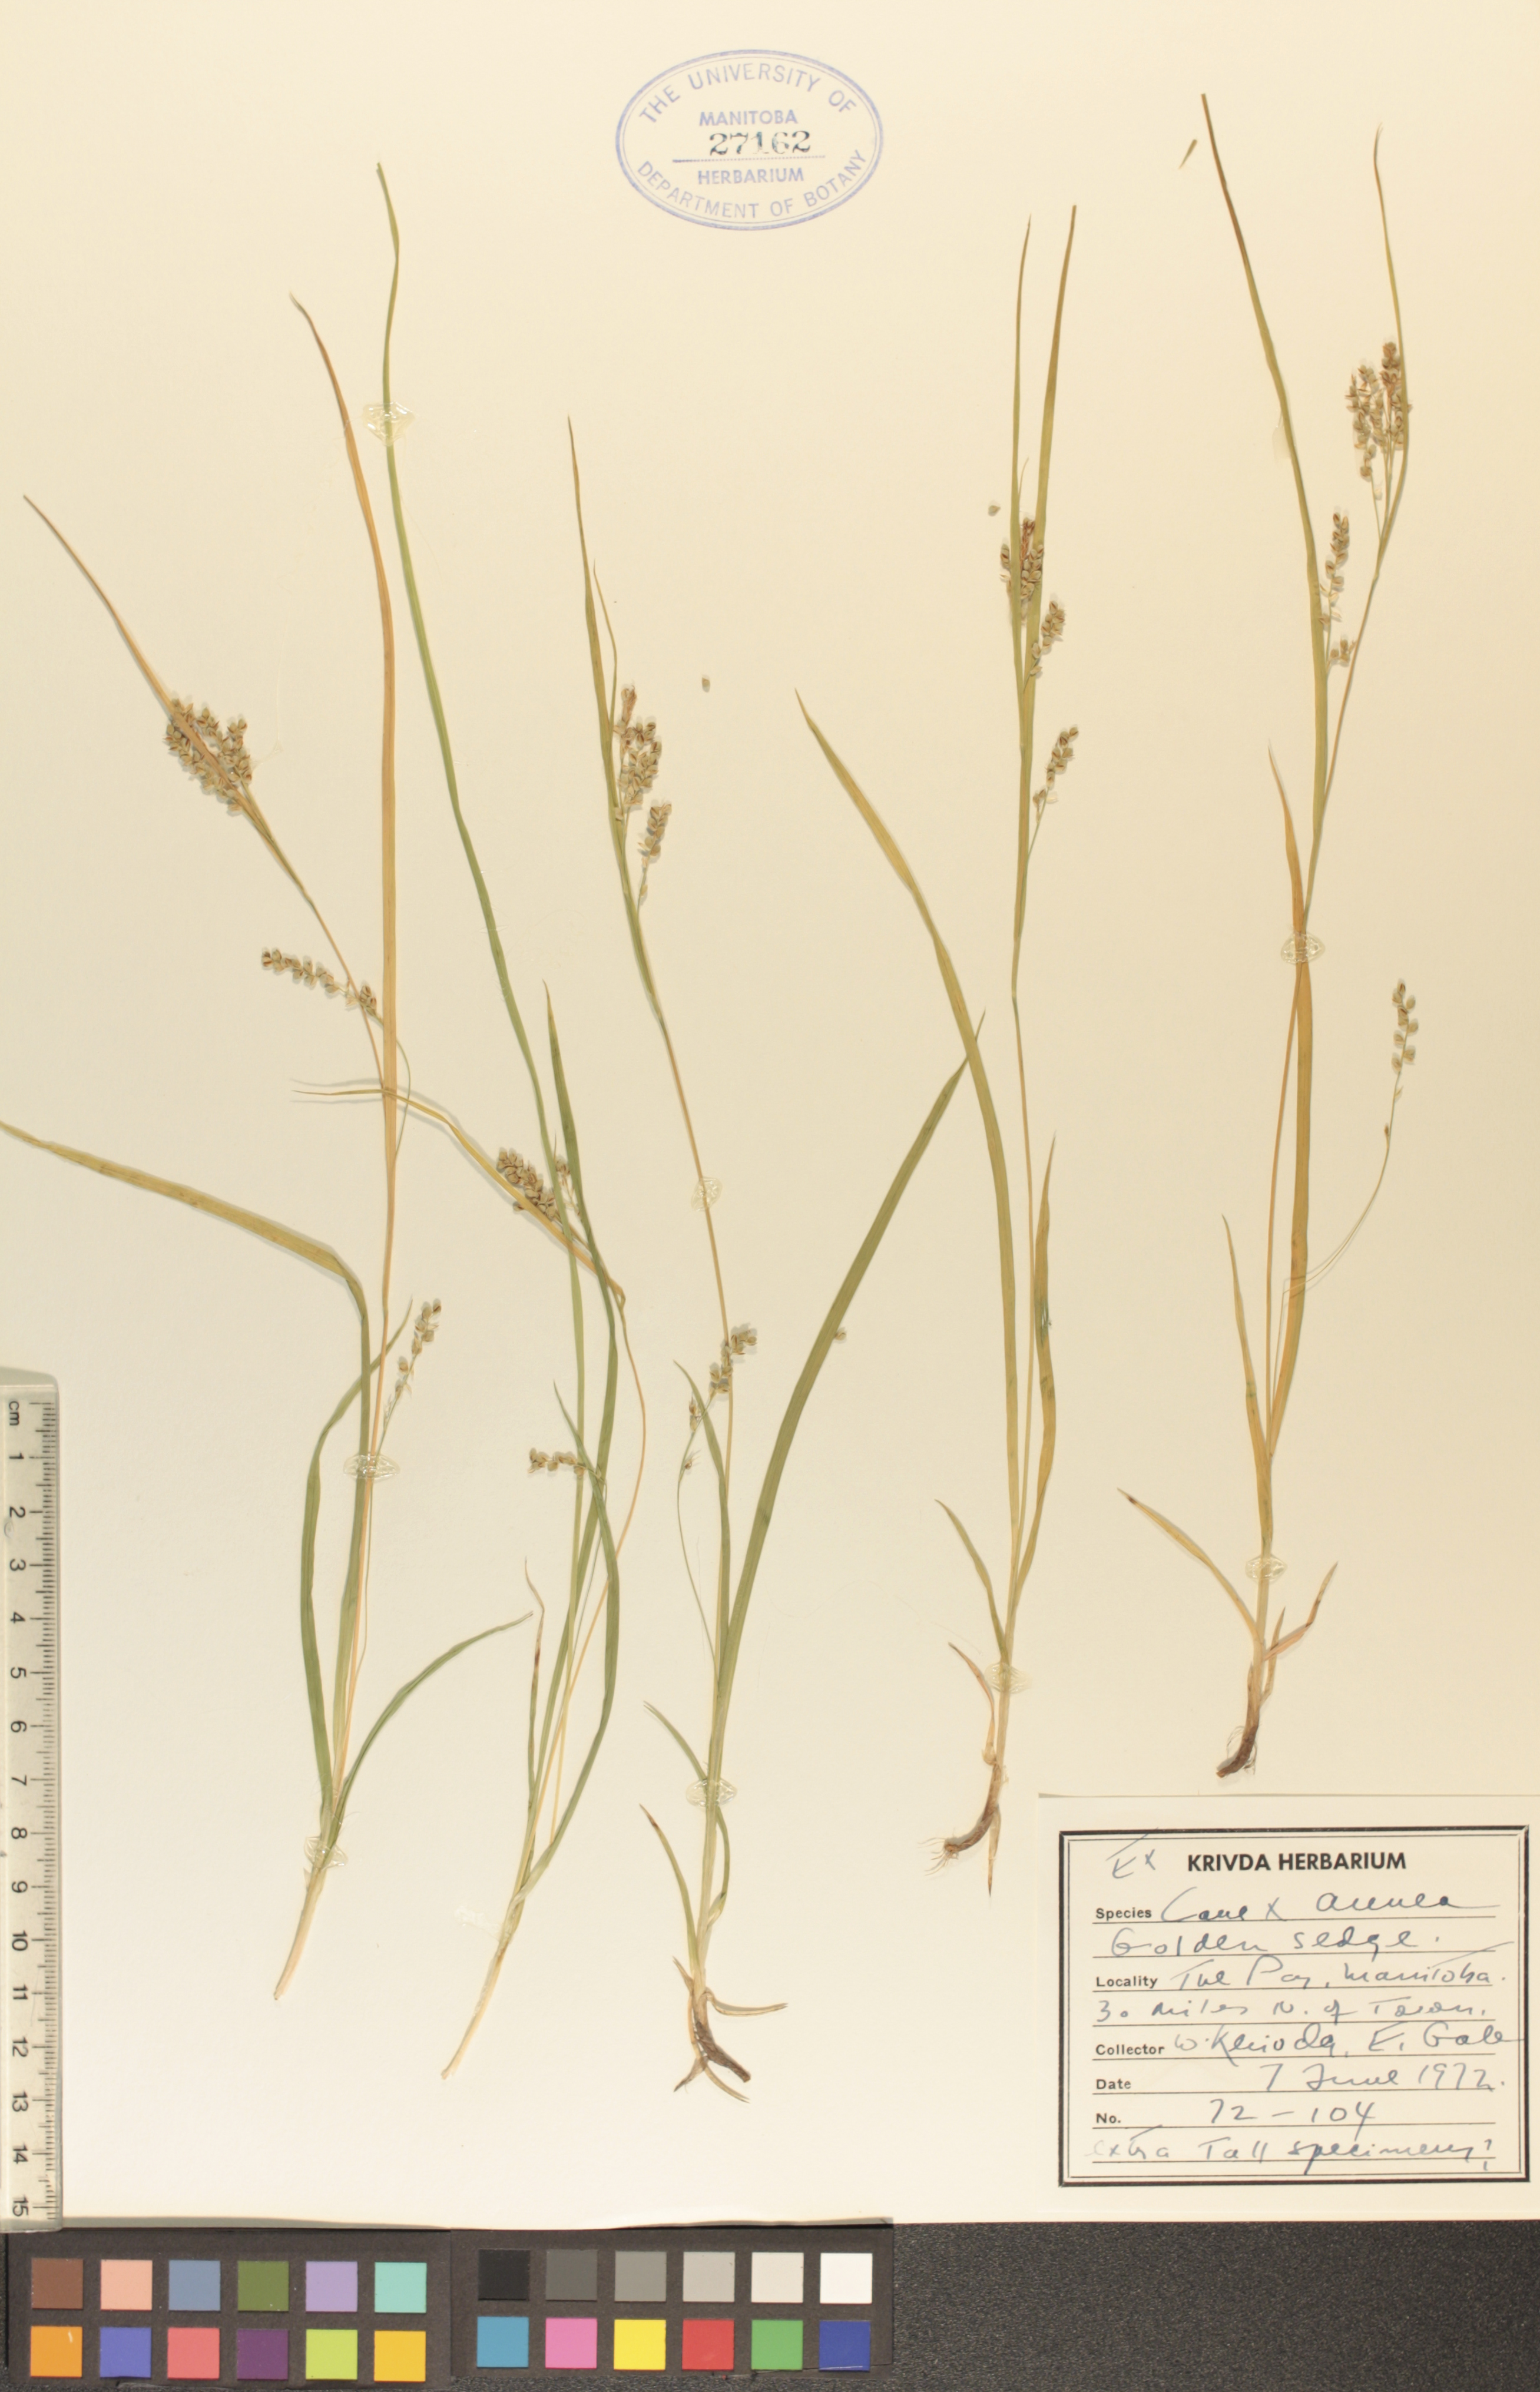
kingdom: Plantae
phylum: Tracheophyta
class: Liliopsida
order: Poales
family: Cyperaceae
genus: Carex
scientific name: Carex aurea
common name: Golden sedge
